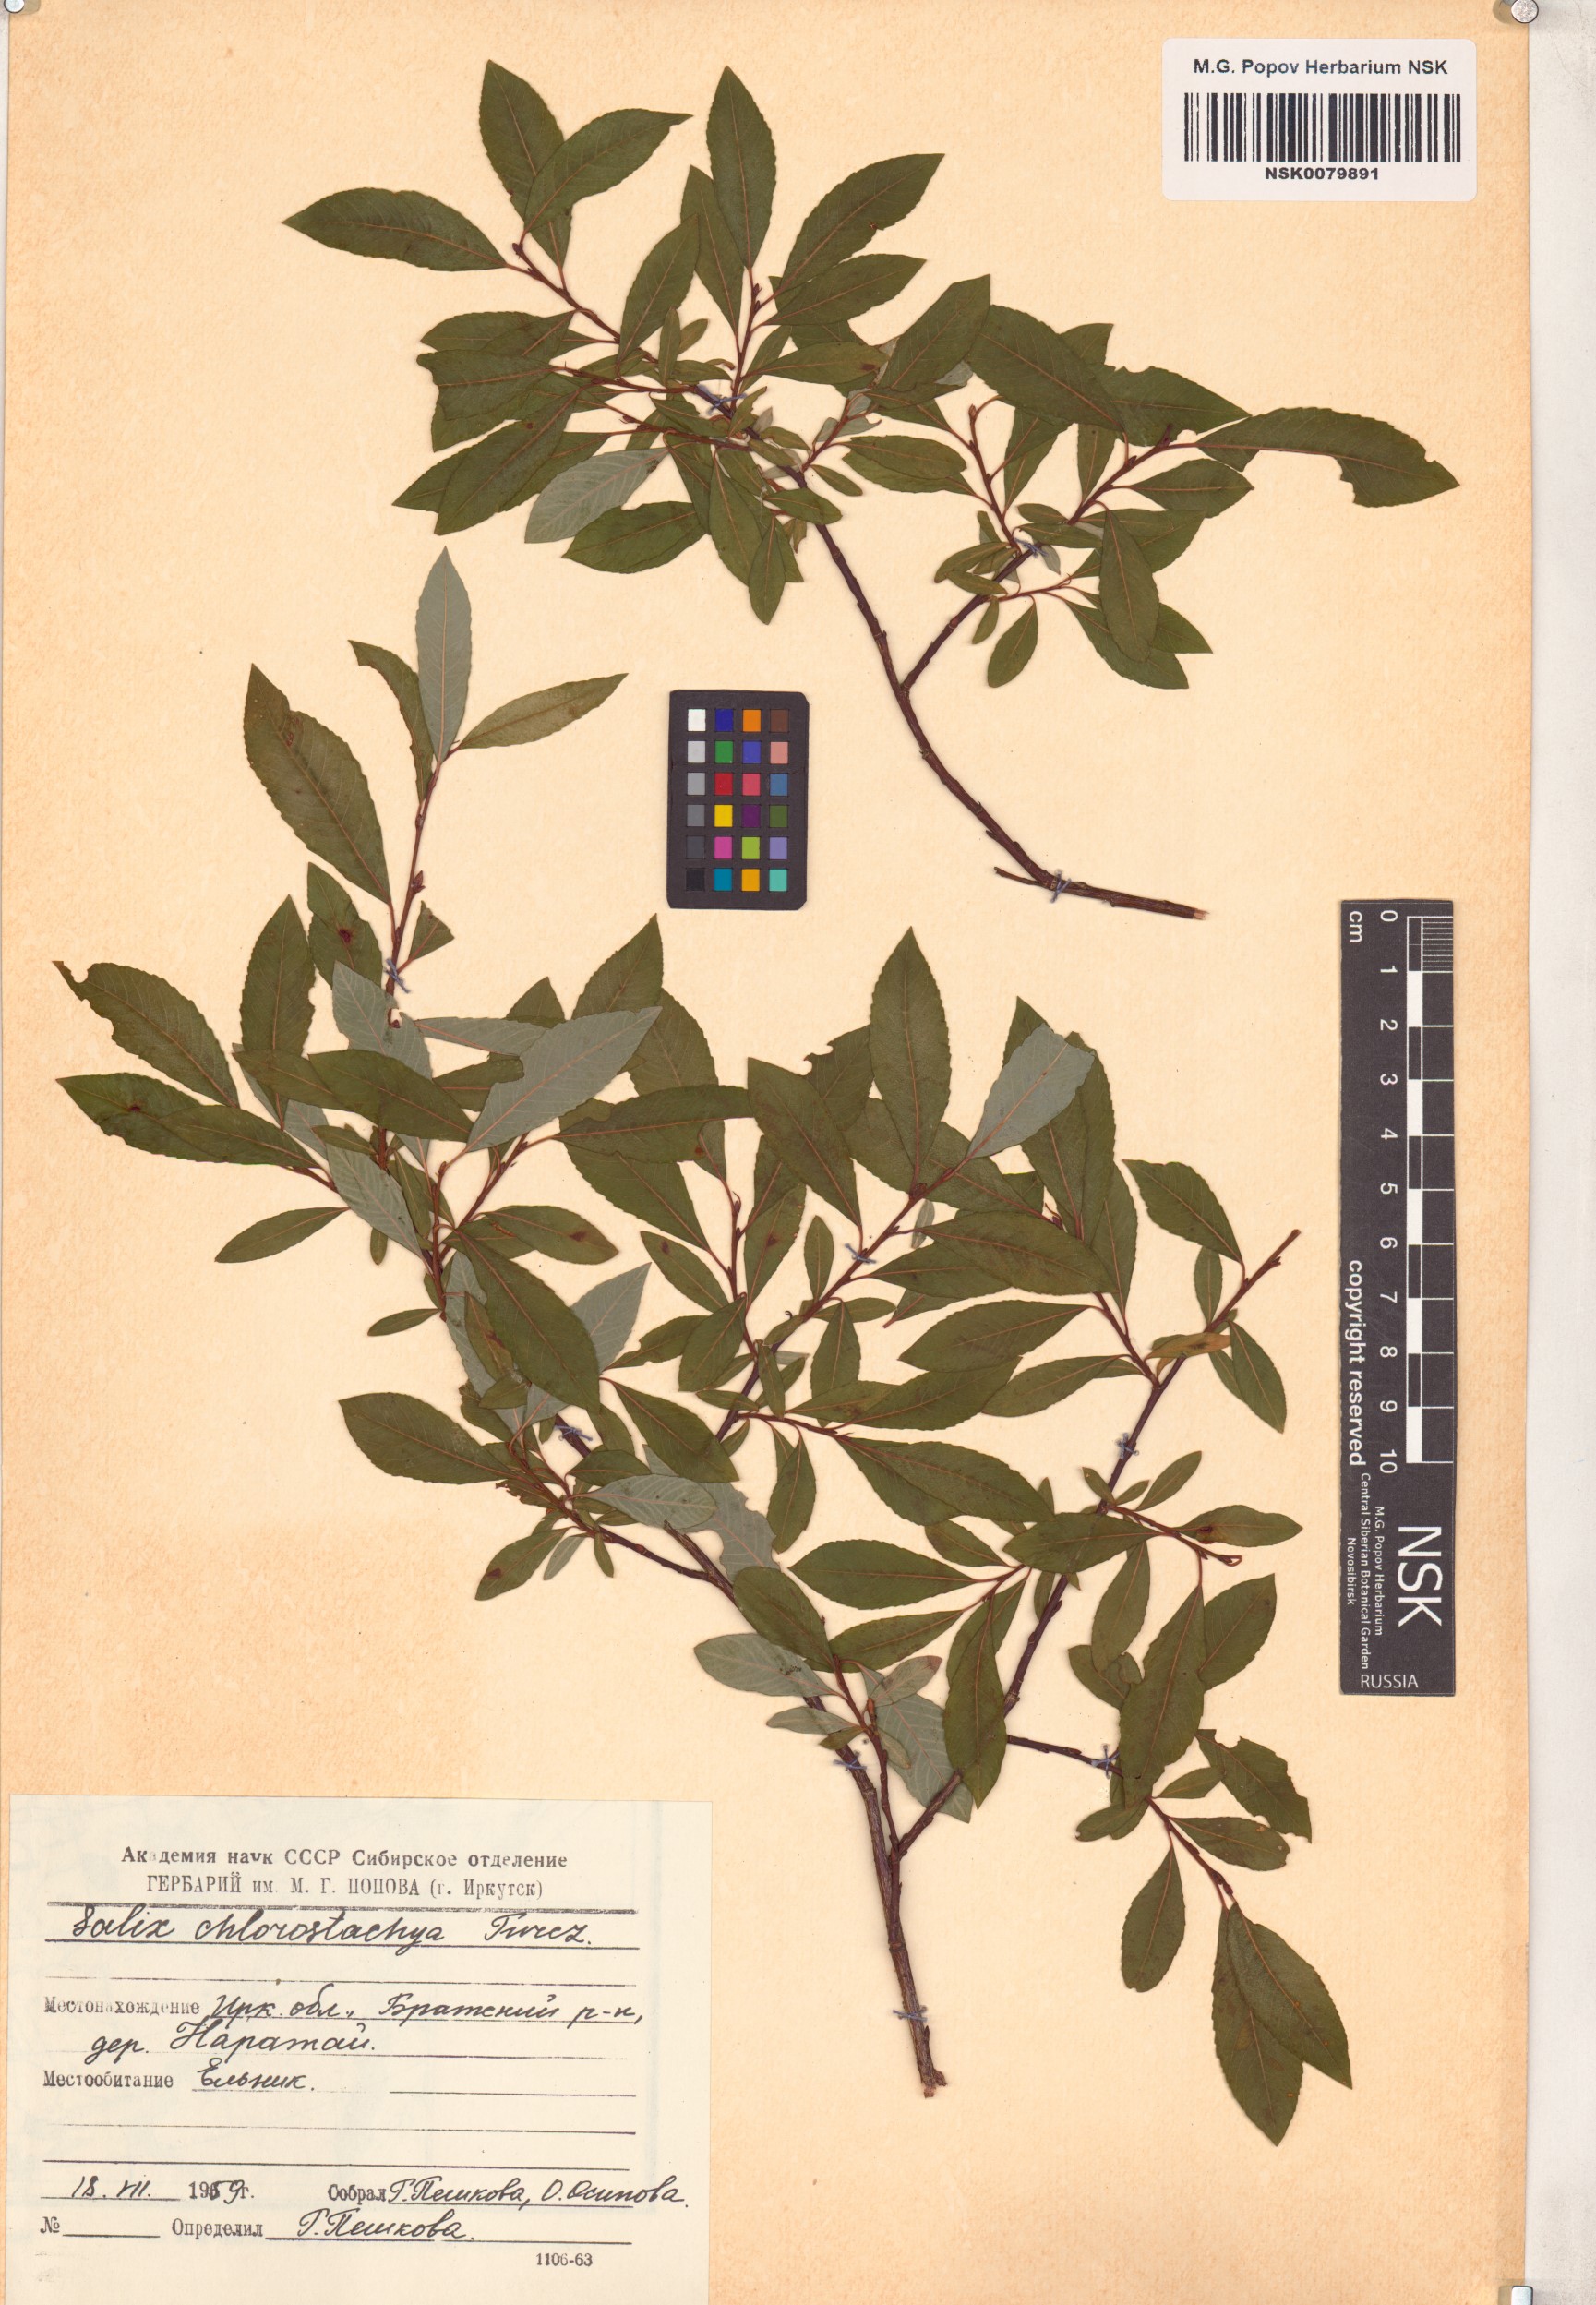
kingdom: Plantae
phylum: Tracheophyta
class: Magnoliopsida
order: Malpighiales
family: Salicaceae
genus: Salix
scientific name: Salix rhamnifolia
